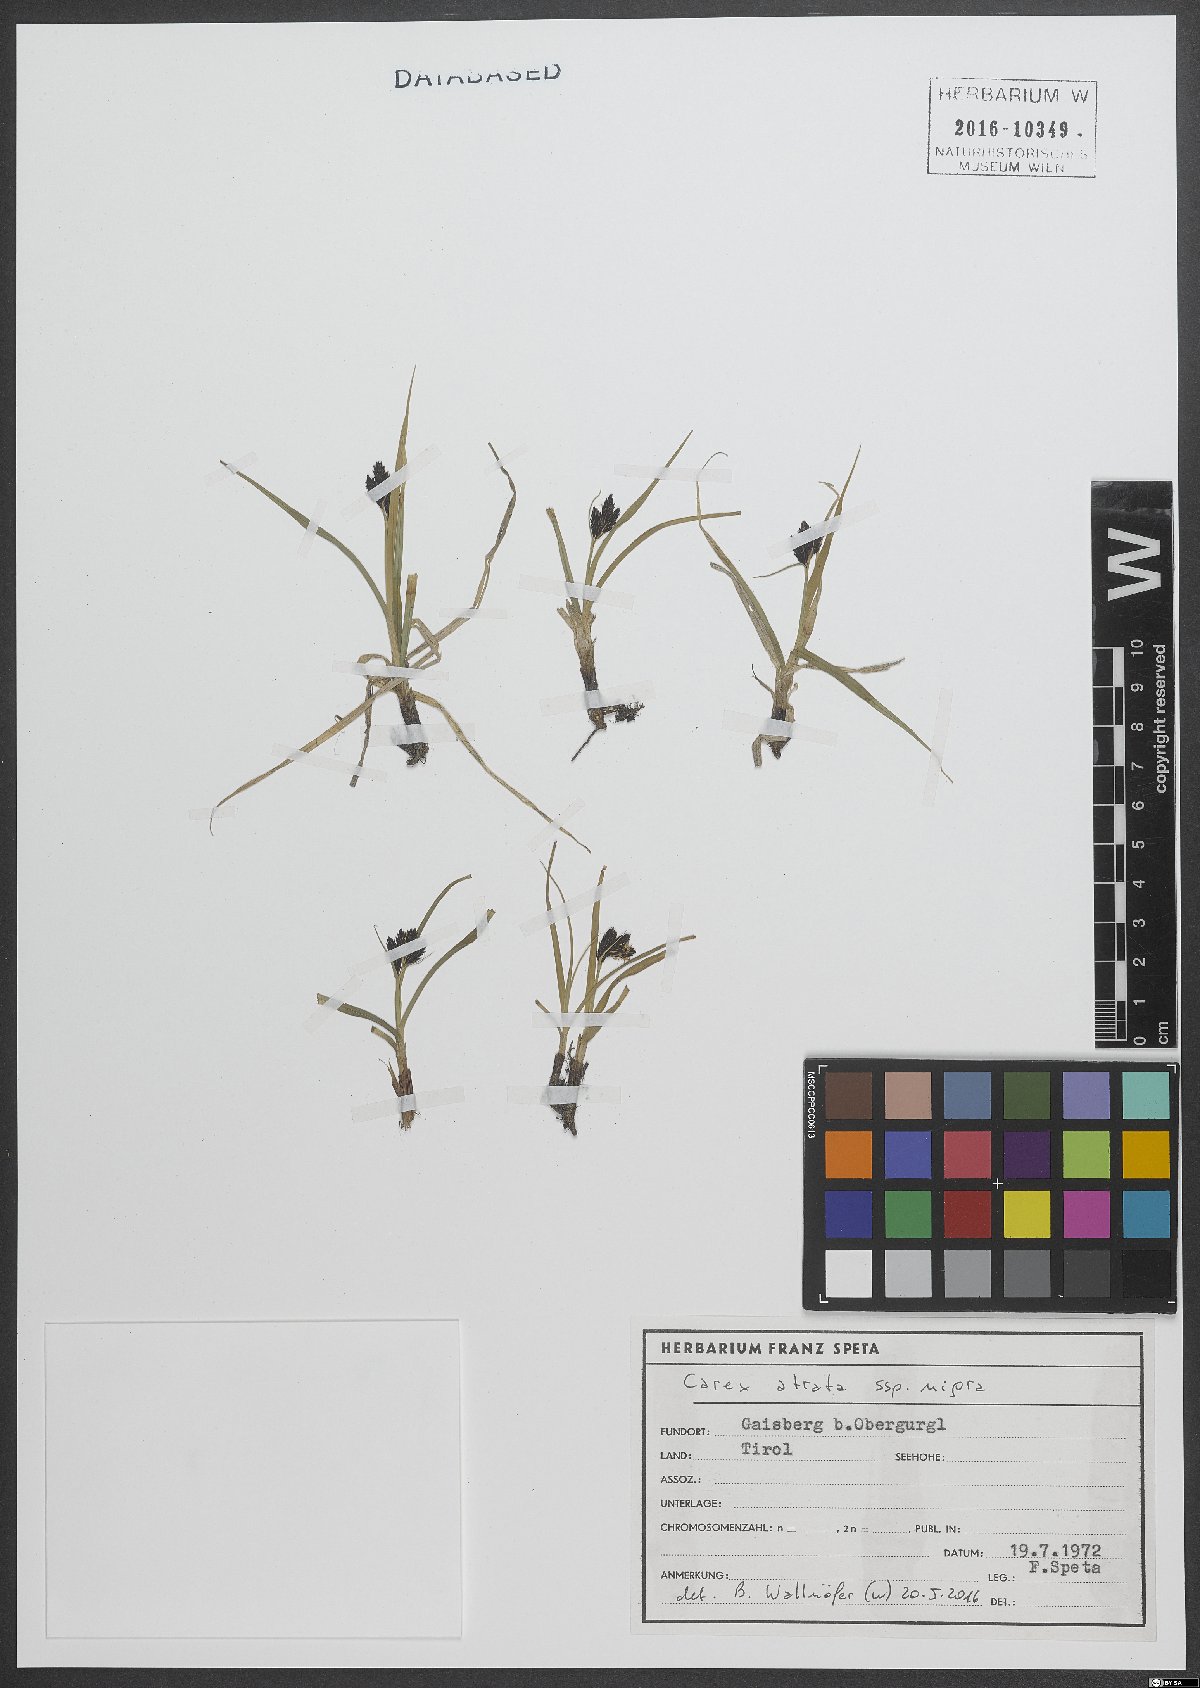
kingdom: Plantae
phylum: Tracheophyta
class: Liliopsida
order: Poales
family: Cyperaceae
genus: Carex
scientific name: Carex parviflora
